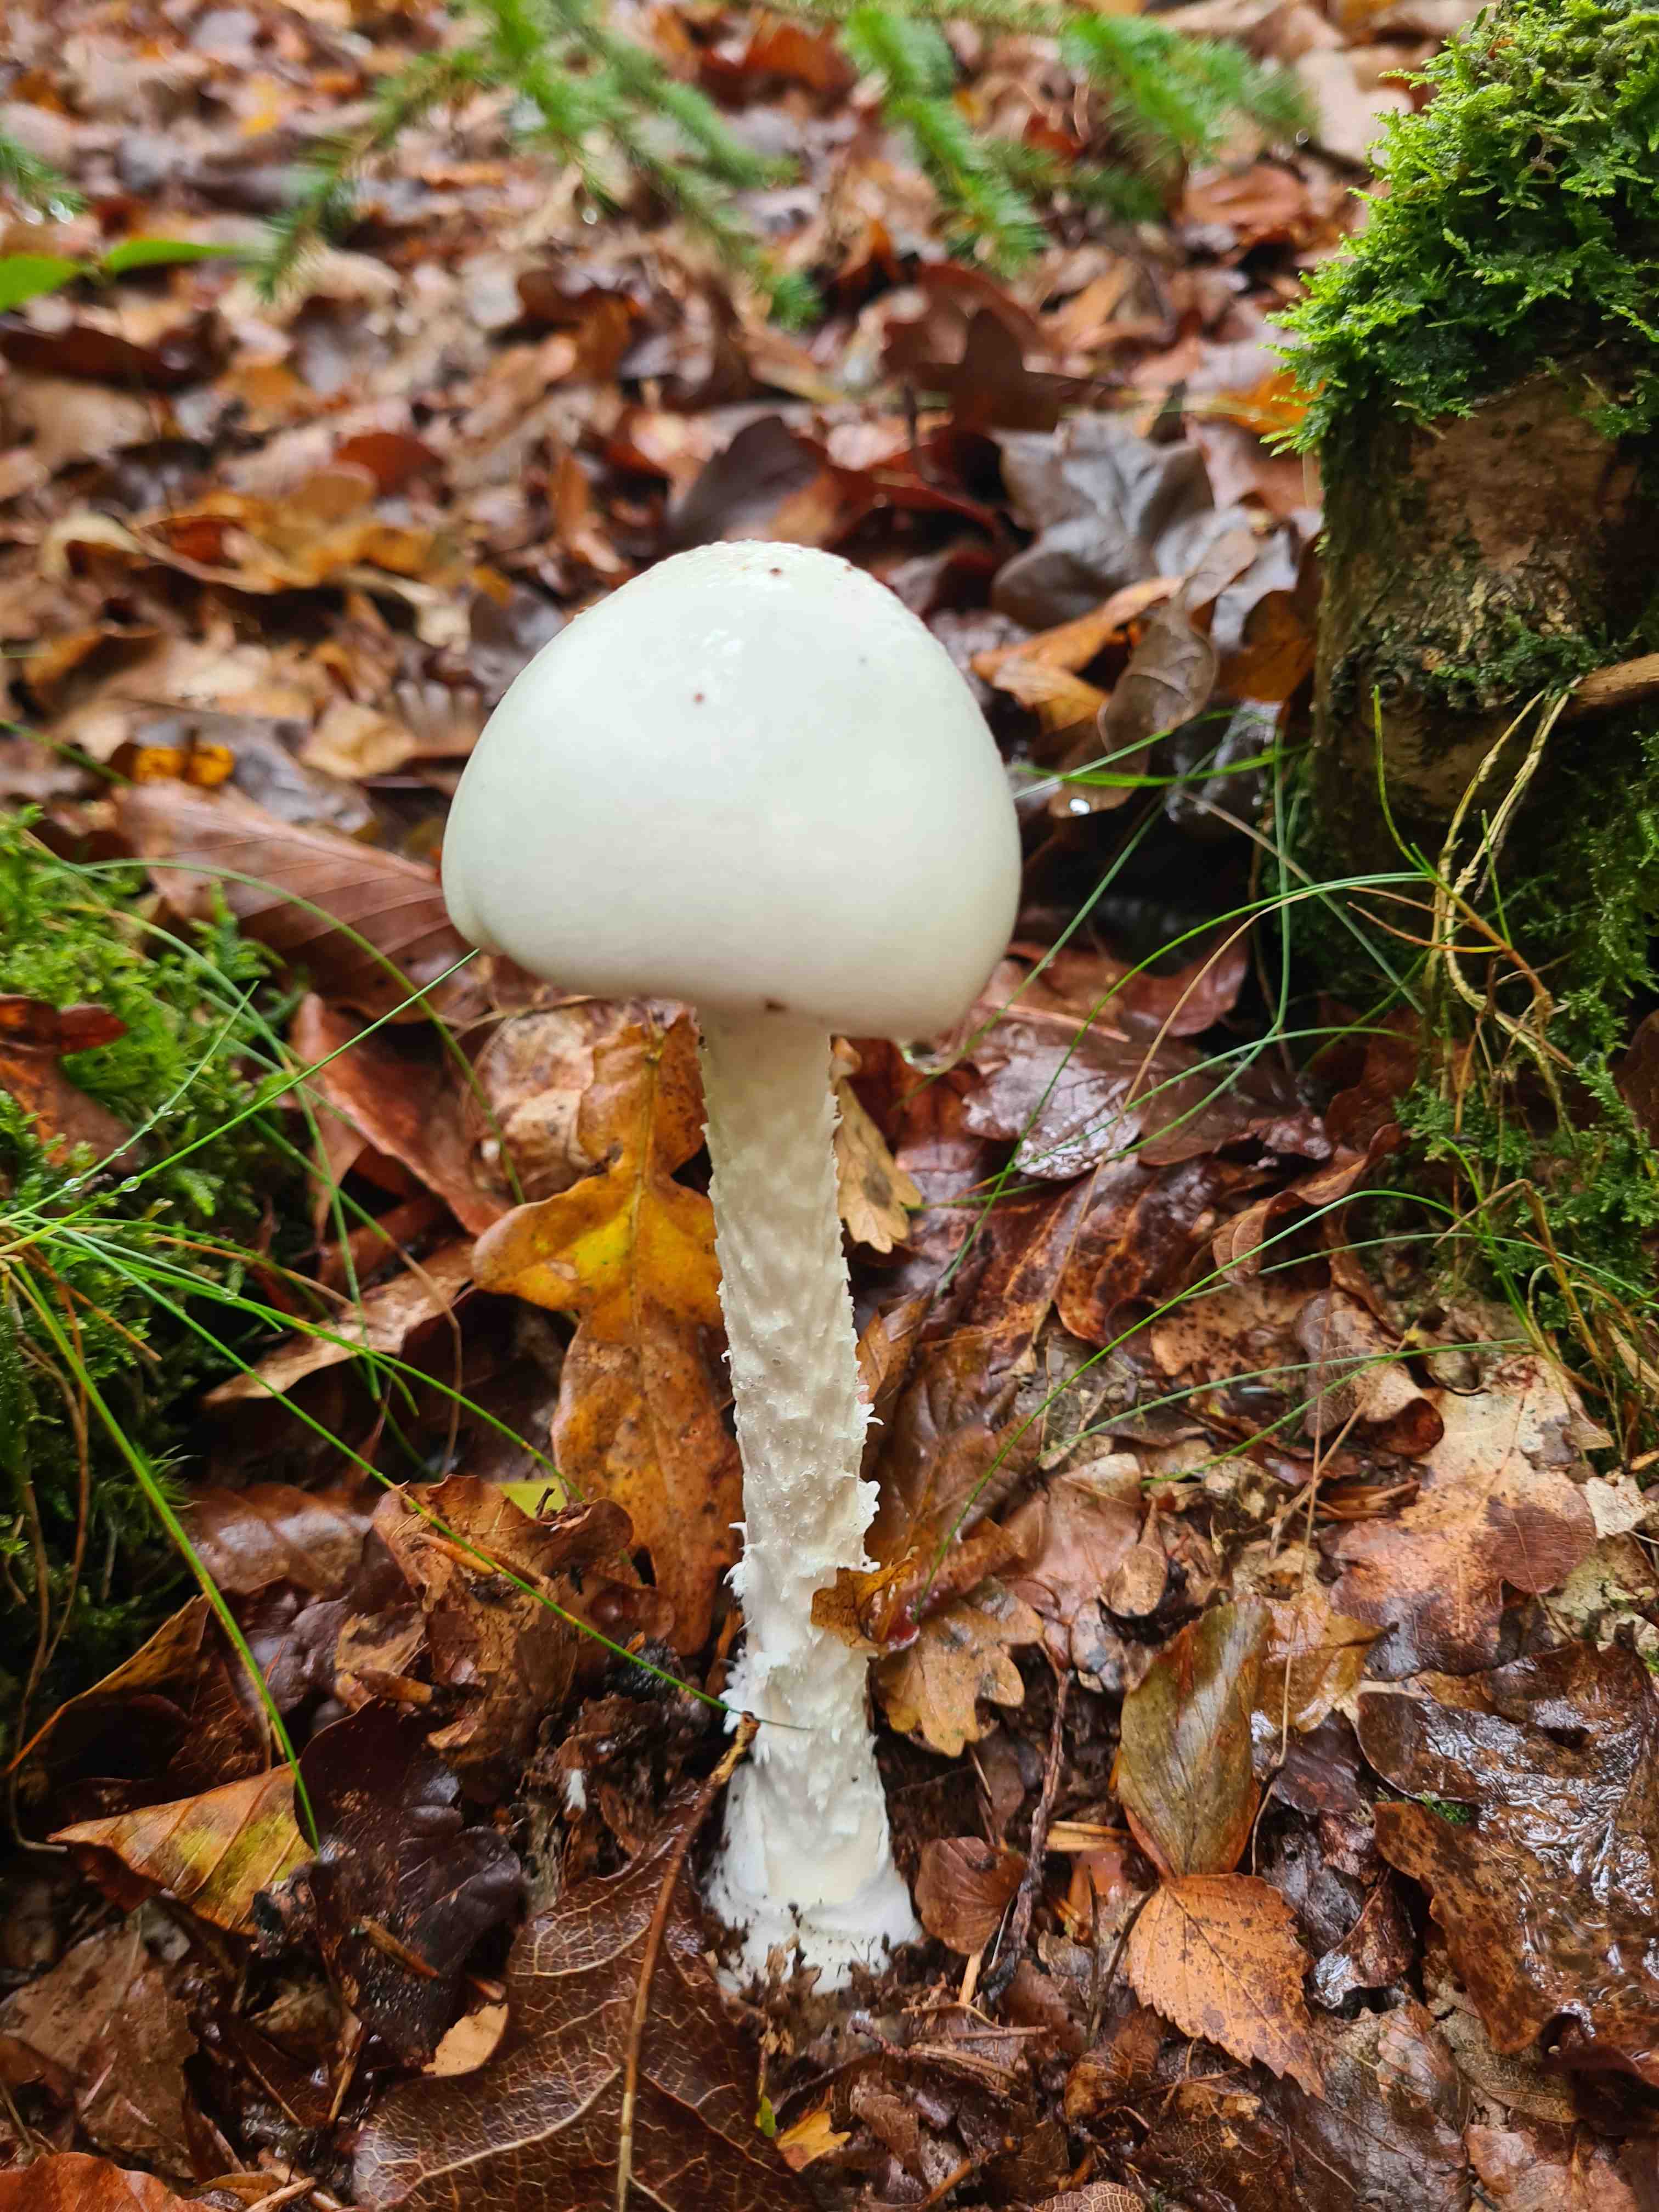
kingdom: Fungi
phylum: Basidiomycota
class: Agaricomycetes
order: Agaricales
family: Amanitaceae
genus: Amanita
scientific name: Amanita virosa
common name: snehvid fluesvamp
